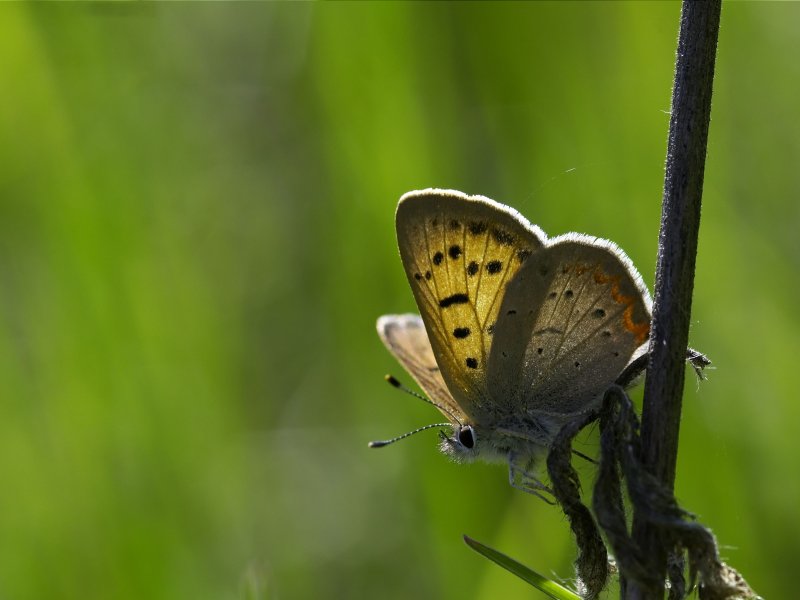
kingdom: Animalia
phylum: Arthropoda
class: Insecta
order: Lepidoptera
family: Sesiidae
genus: Sesia
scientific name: Sesia Lycaena helloides
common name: Purplish Copper
